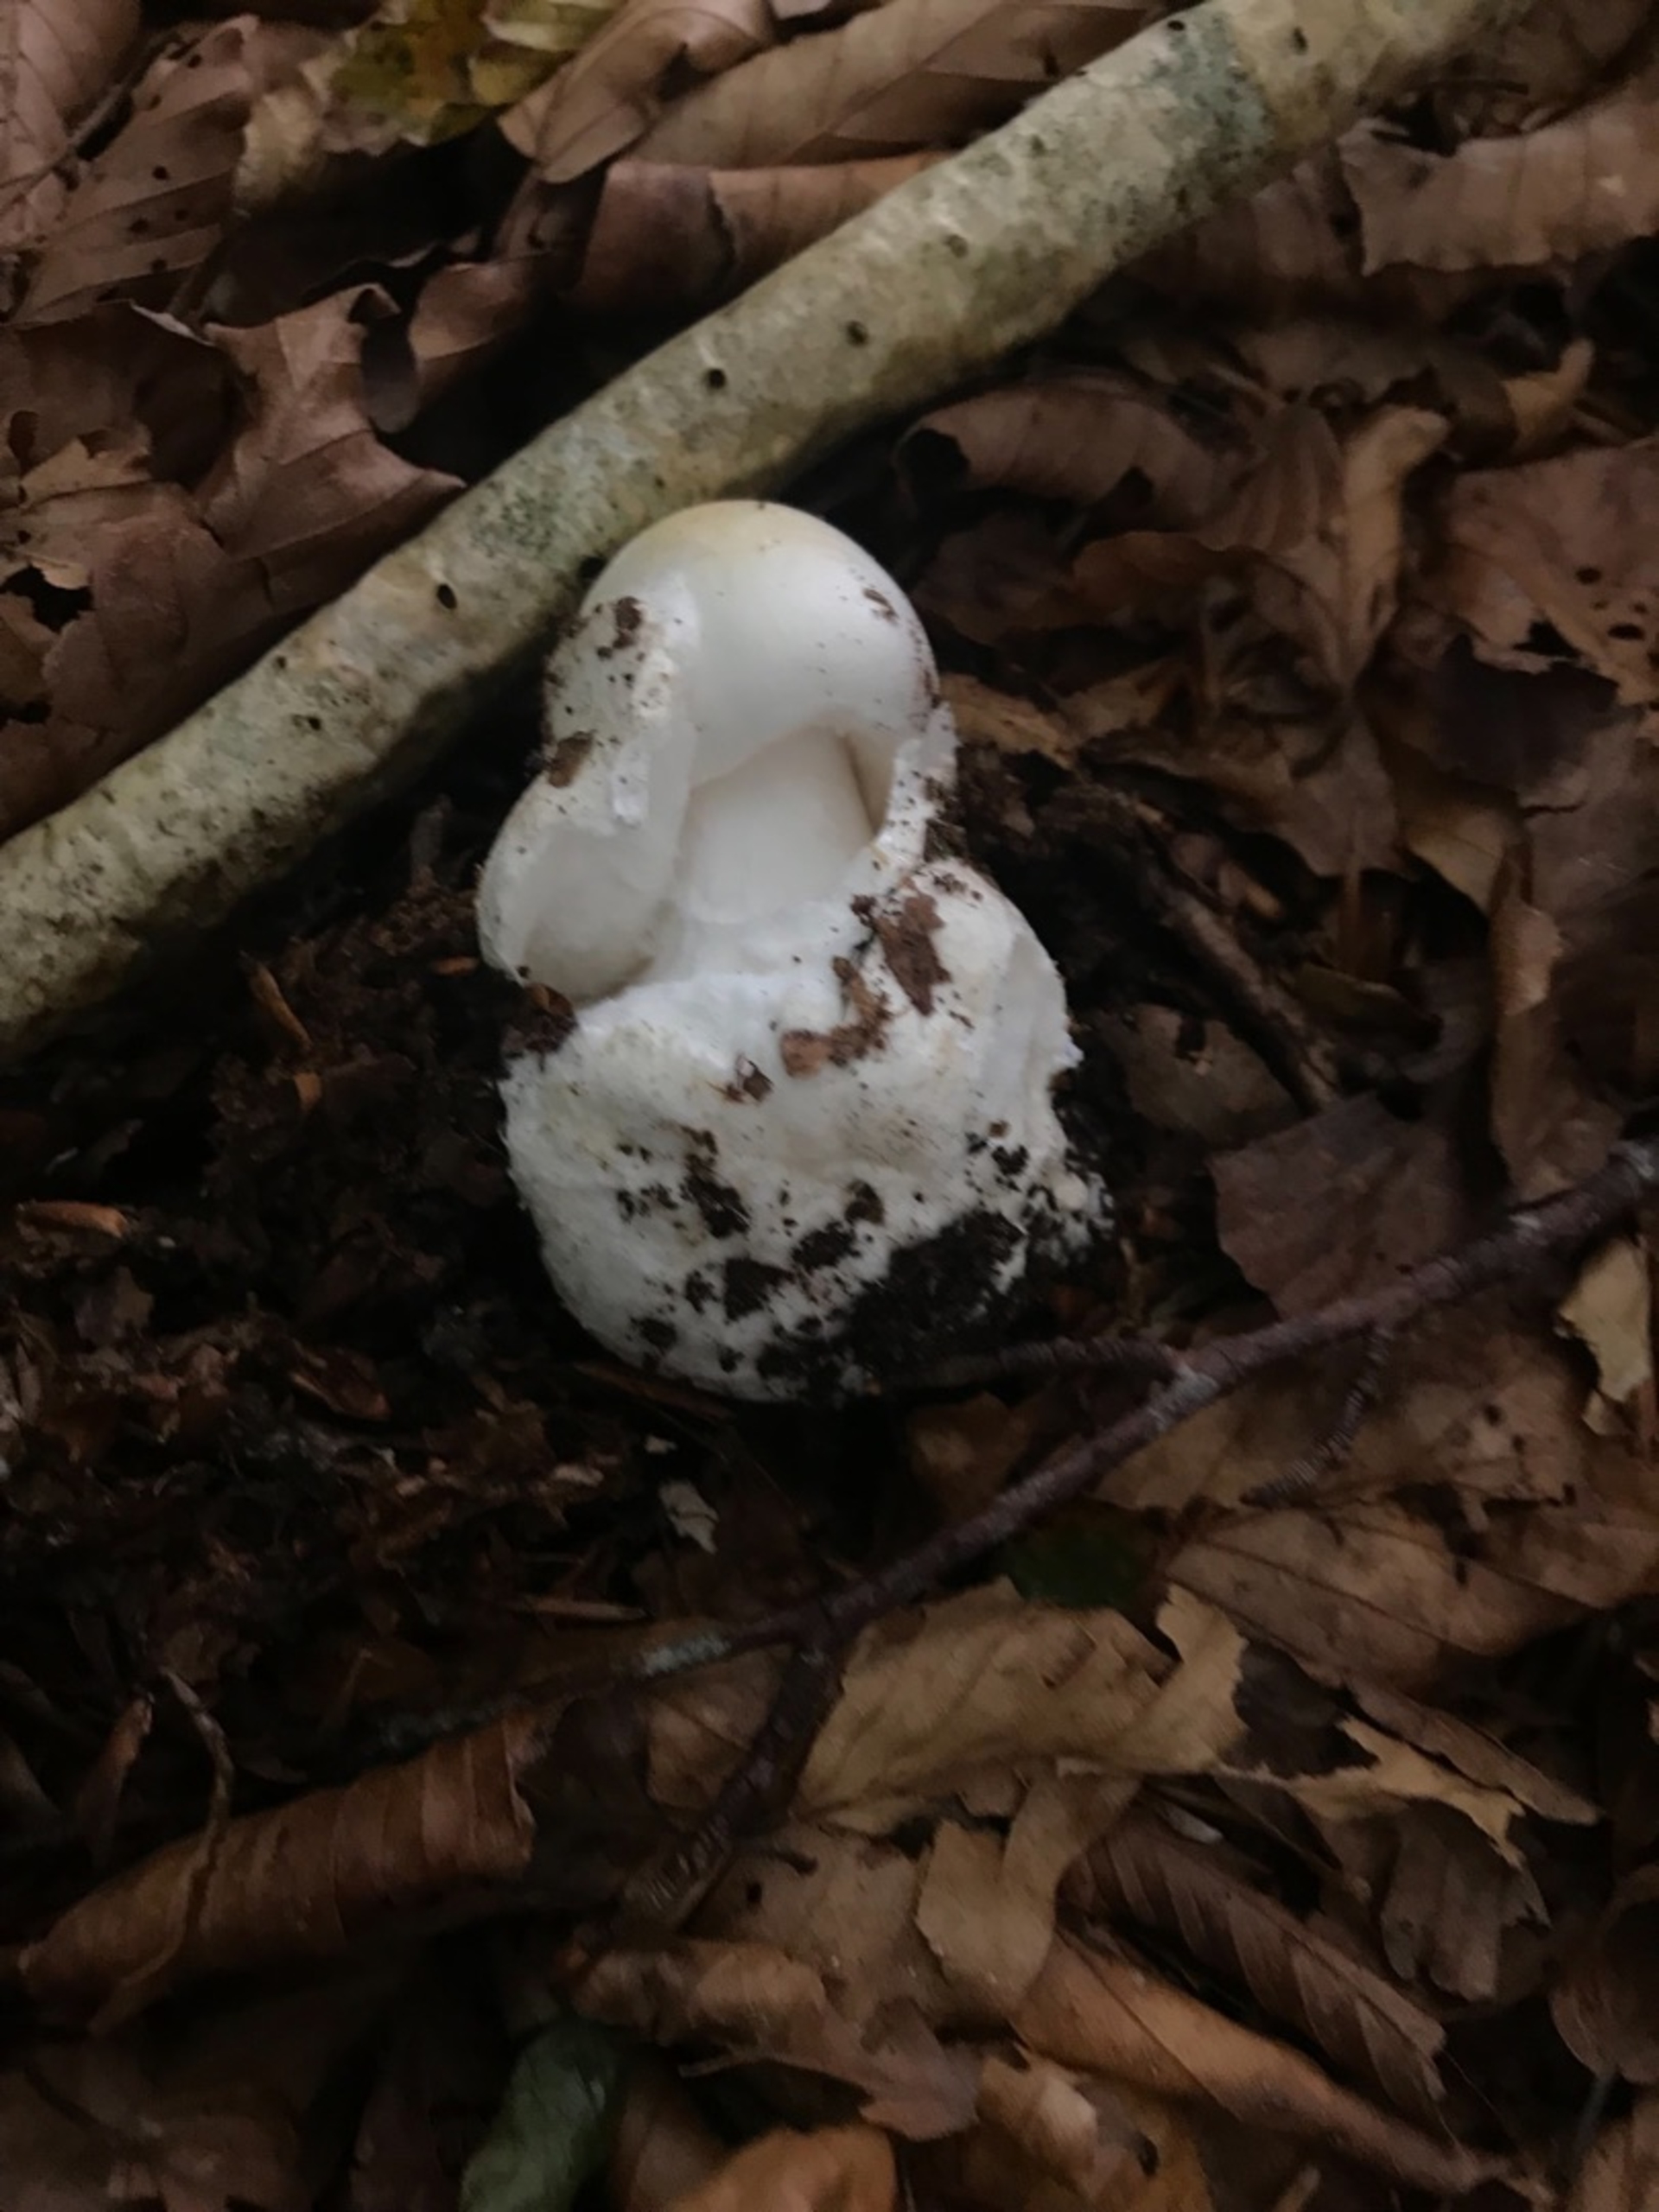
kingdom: Fungi
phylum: Basidiomycota
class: Agaricomycetes
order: Agaricales
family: Amanitaceae
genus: Amanita
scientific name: Amanita virosa
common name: Snehvid fluesvamp
